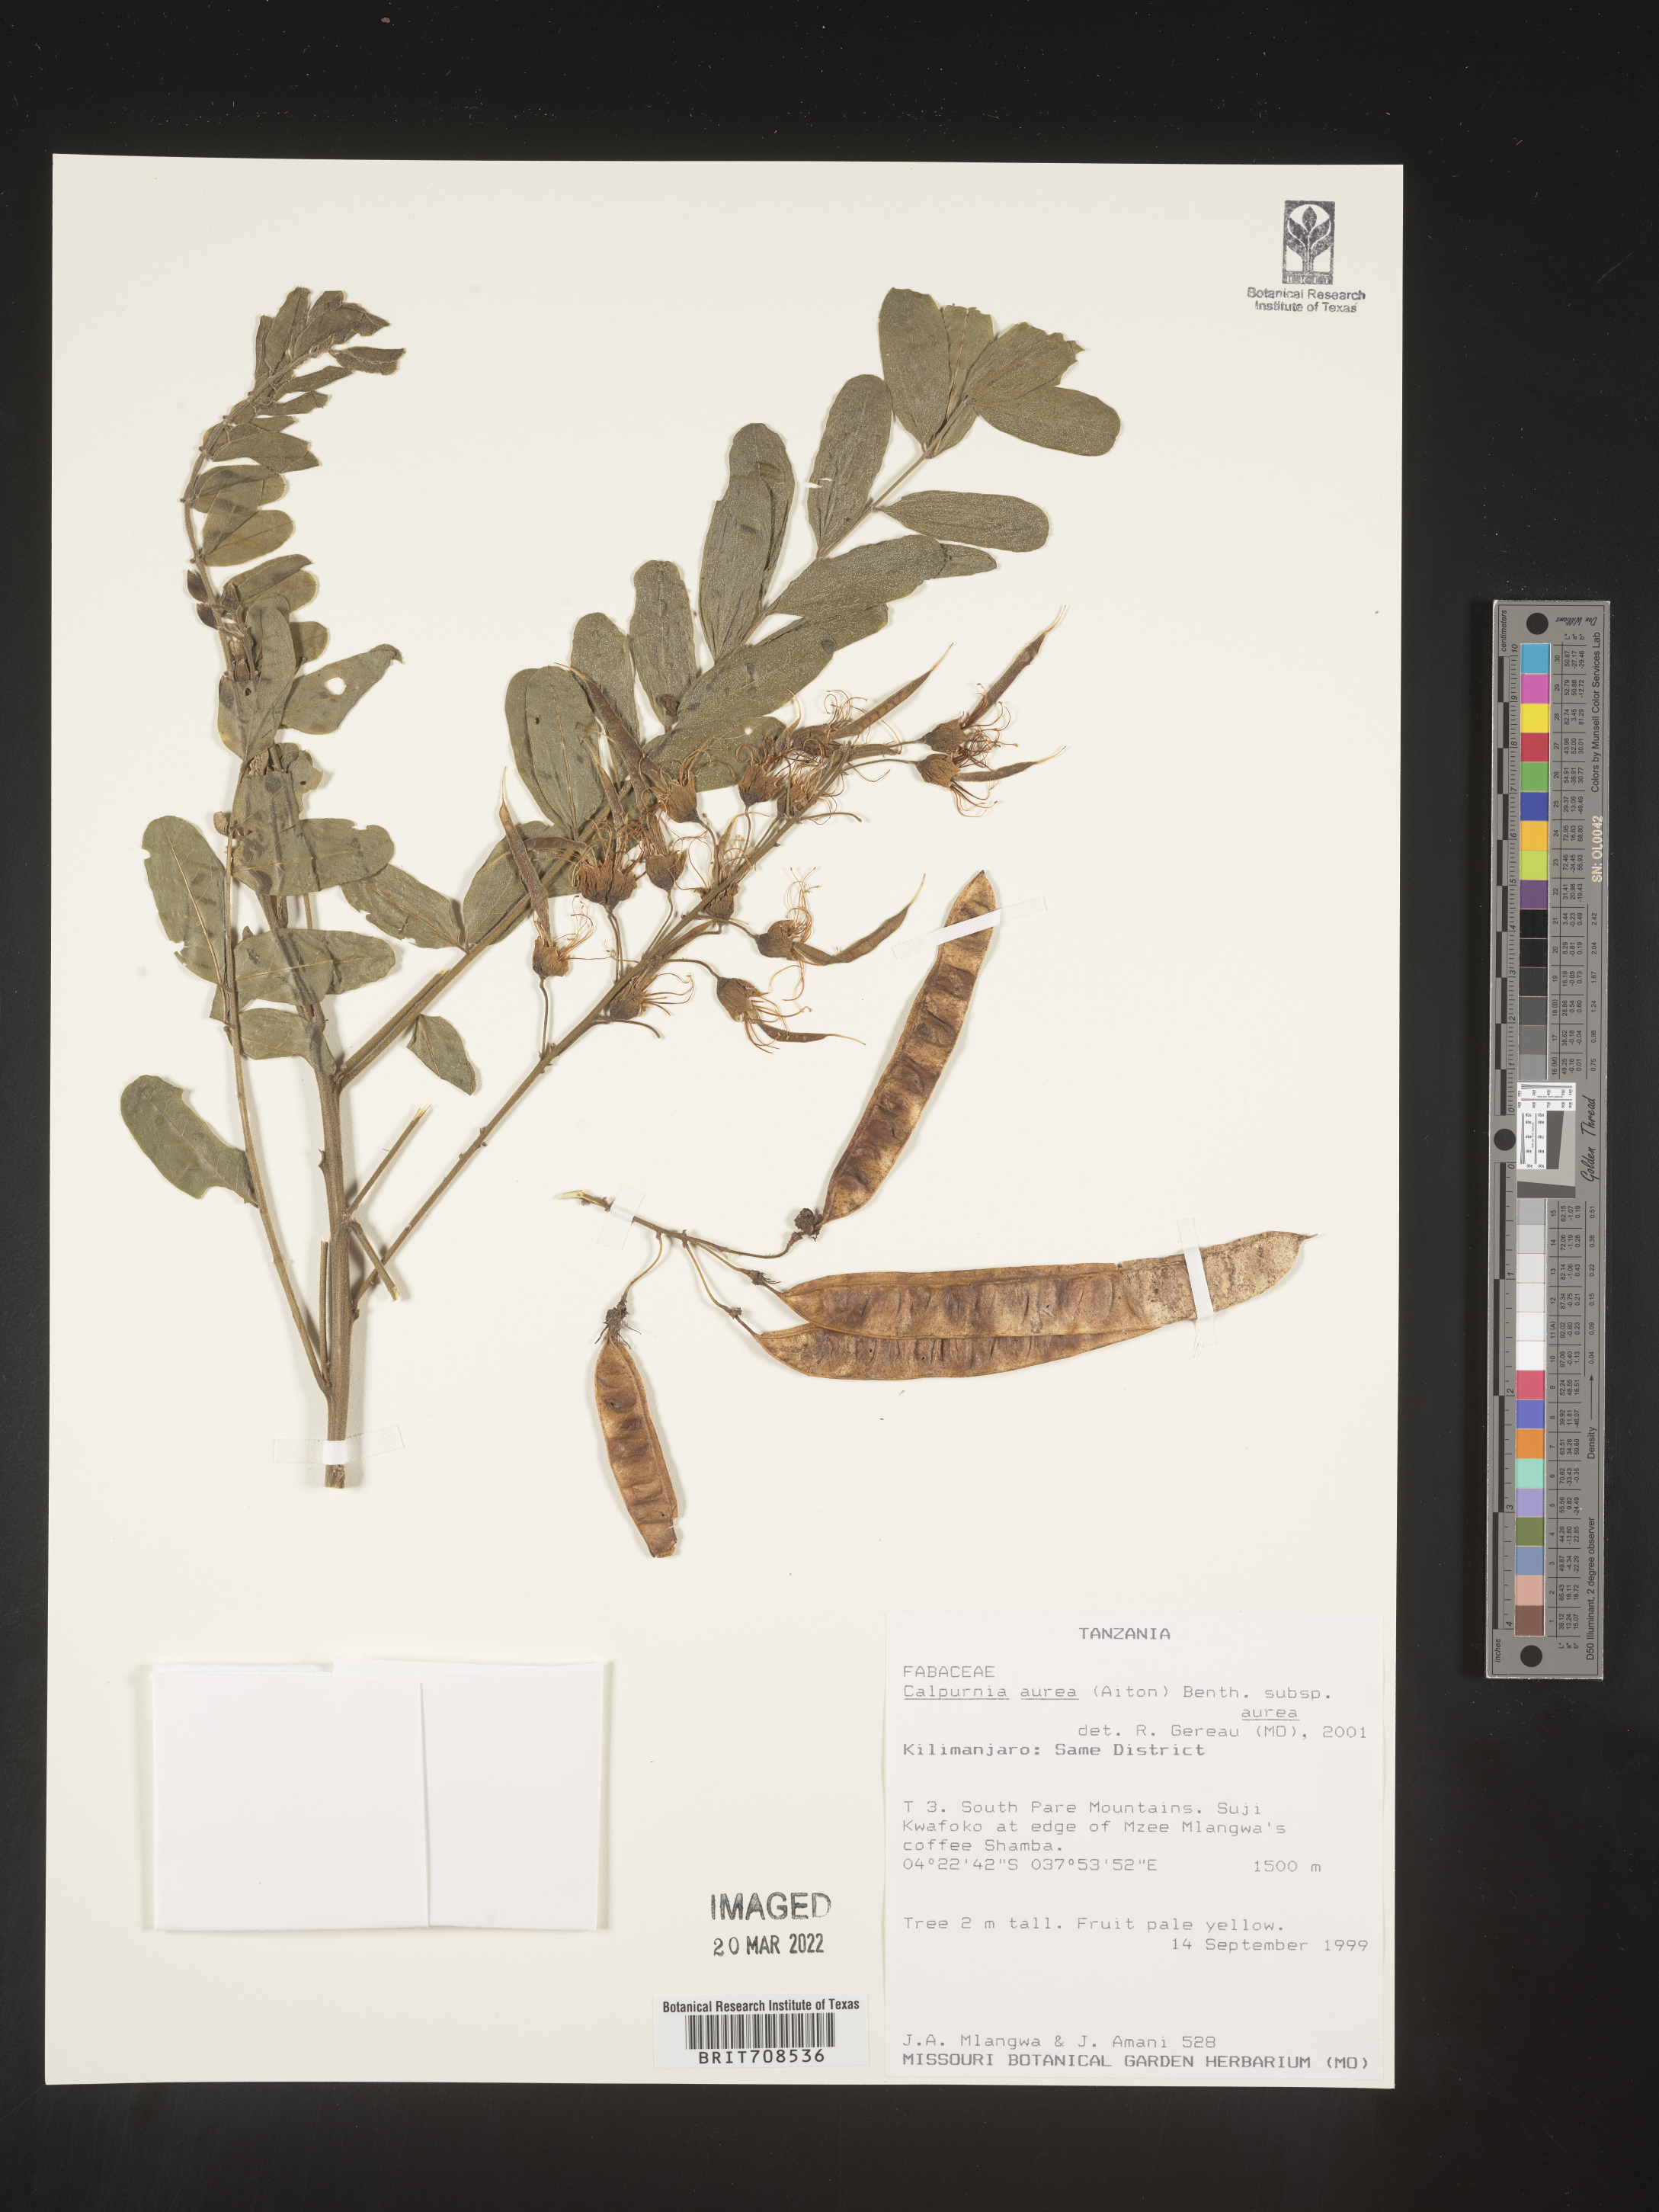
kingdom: Plantae
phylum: Tracheophyta
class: Magnoliopsida
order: Fabales
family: Fabaceae
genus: Calpurnia
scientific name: Calpurnia
